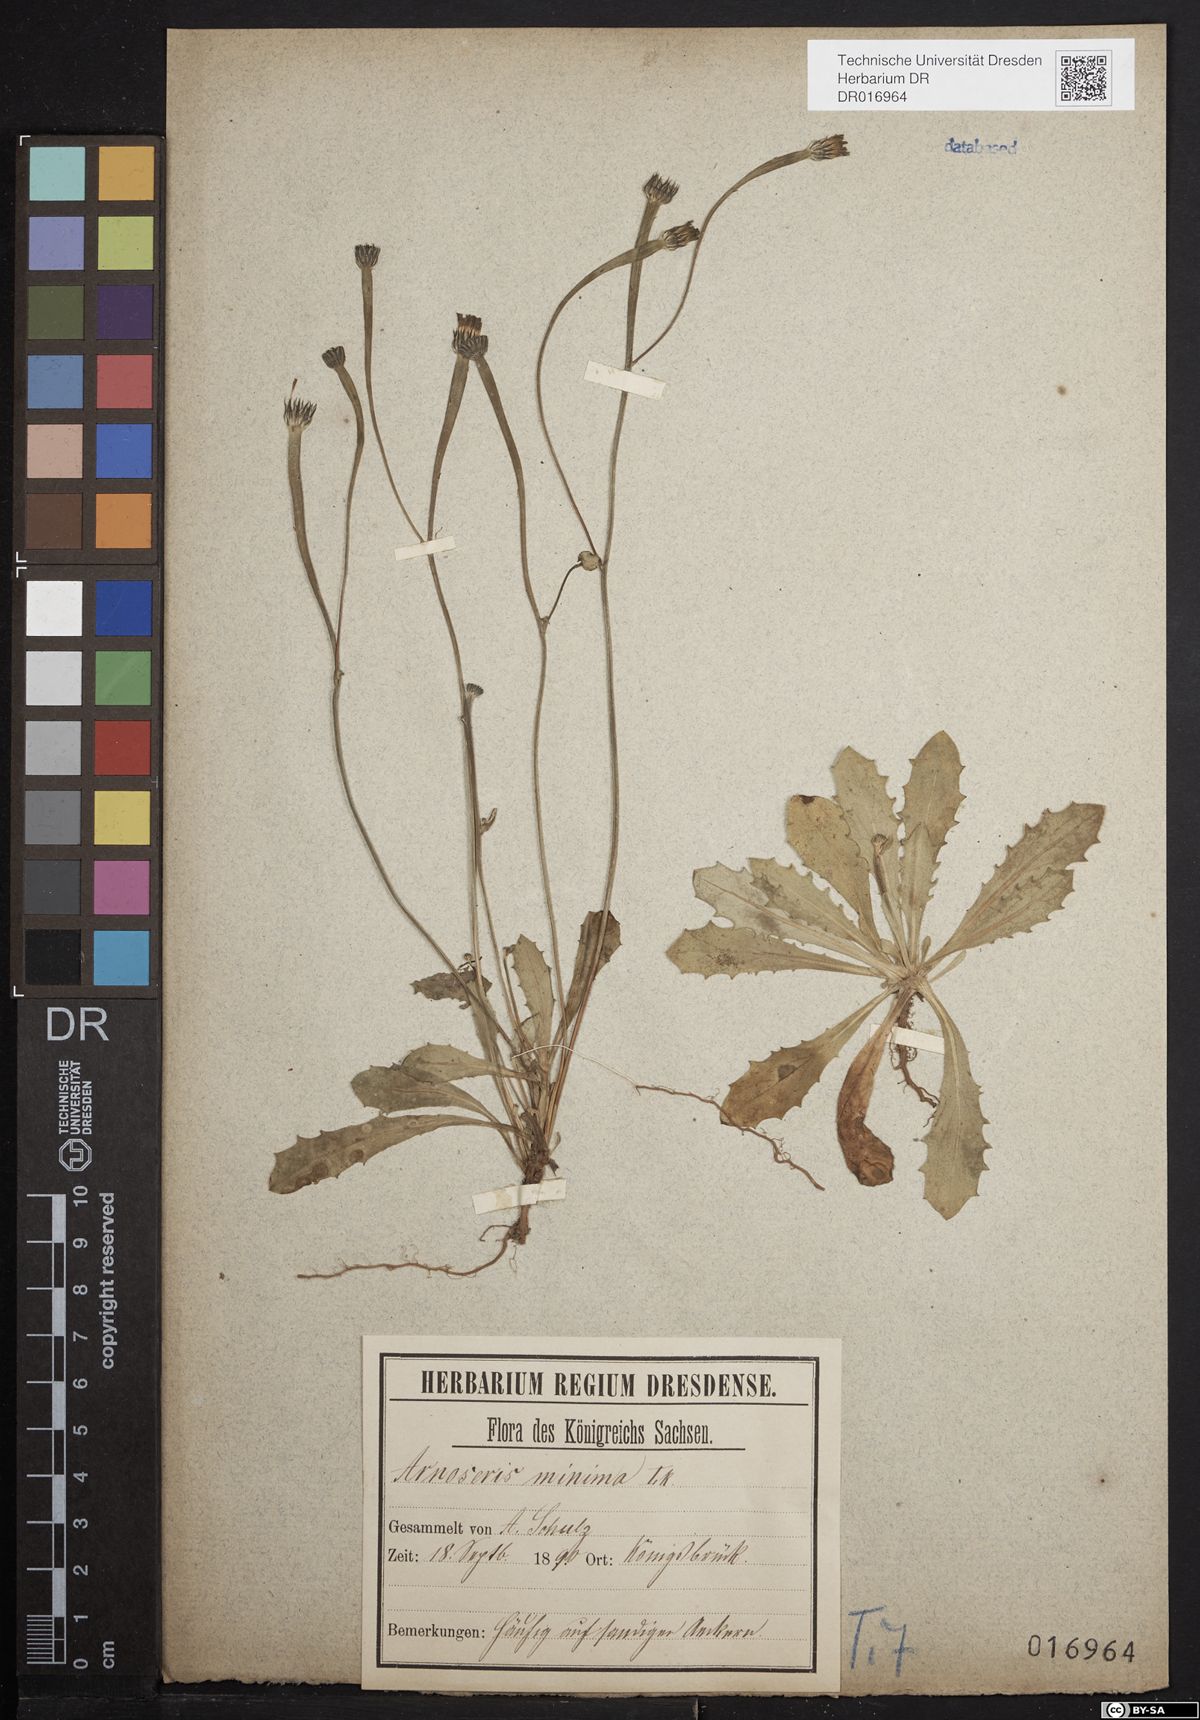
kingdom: Plantae
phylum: Tracheophyta
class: Magnoliopsida
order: Asterales
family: Asteraceae
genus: Arnoseris
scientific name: Arnoseris minima
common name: Lamb's succory
